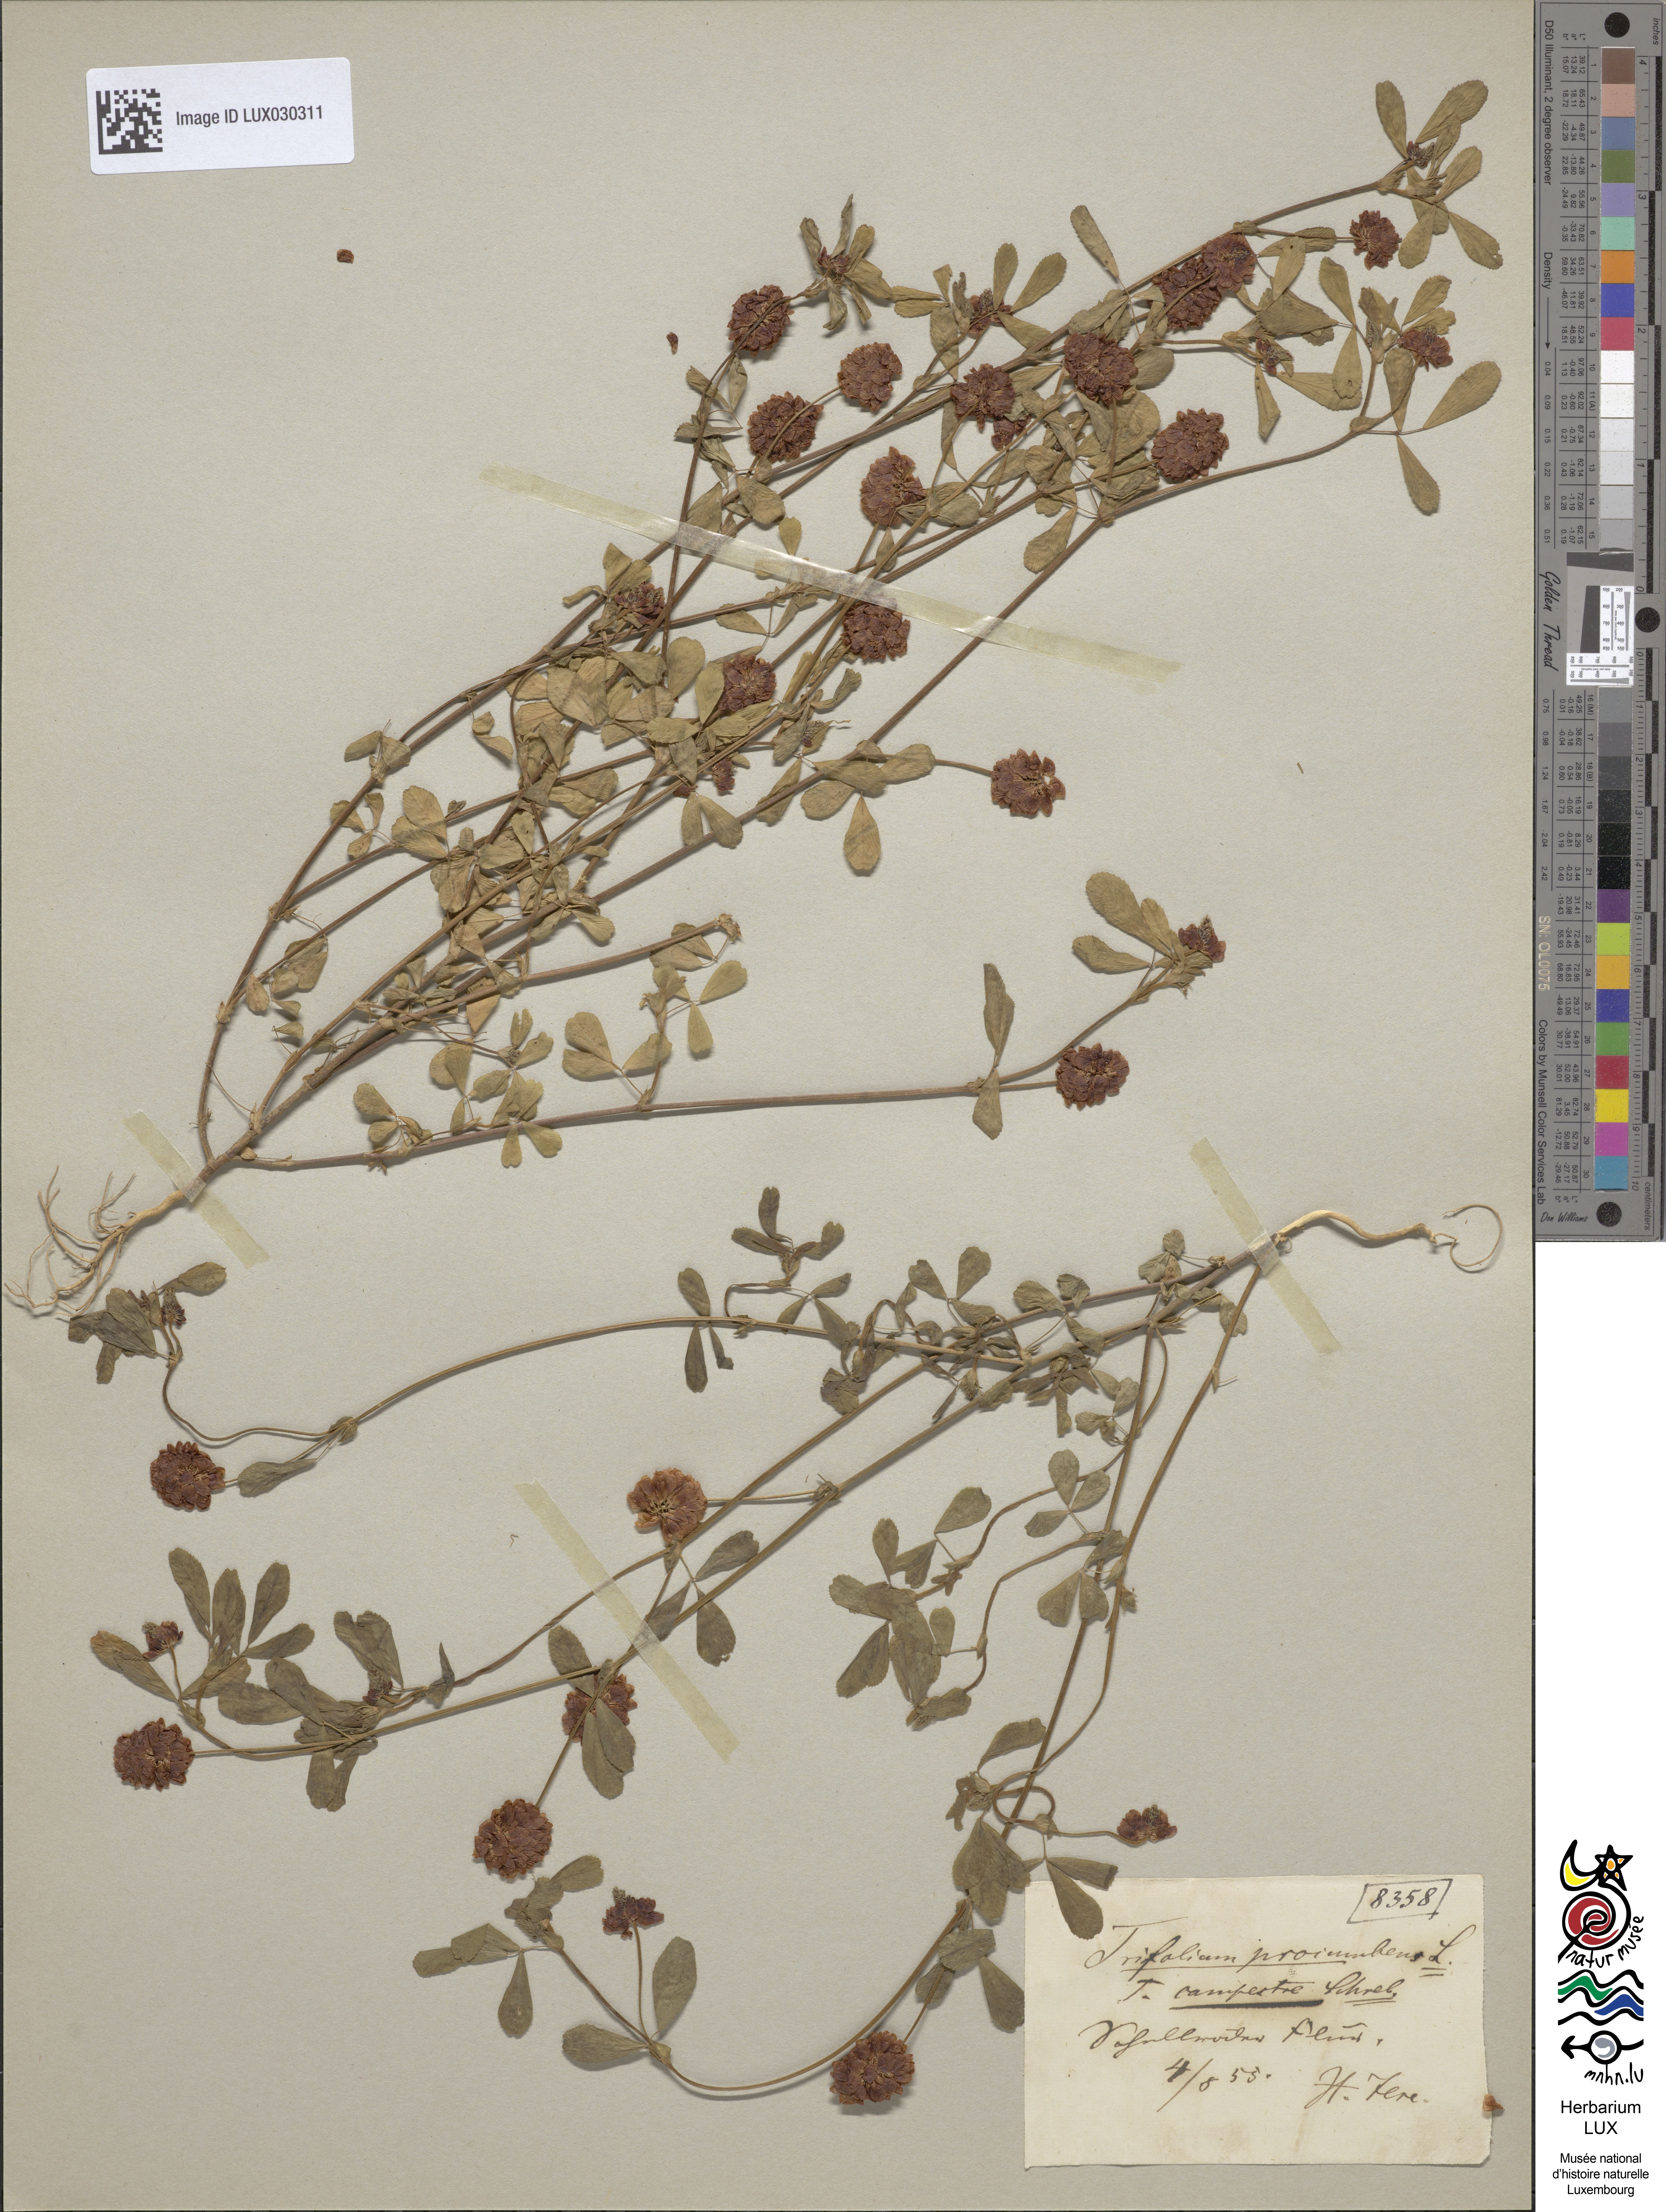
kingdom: Plantae
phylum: Tracheophyta
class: Magnoliopsida
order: Fabales
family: Fabaceae
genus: Trifolium
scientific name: Trifolium campestre
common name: Field clover
